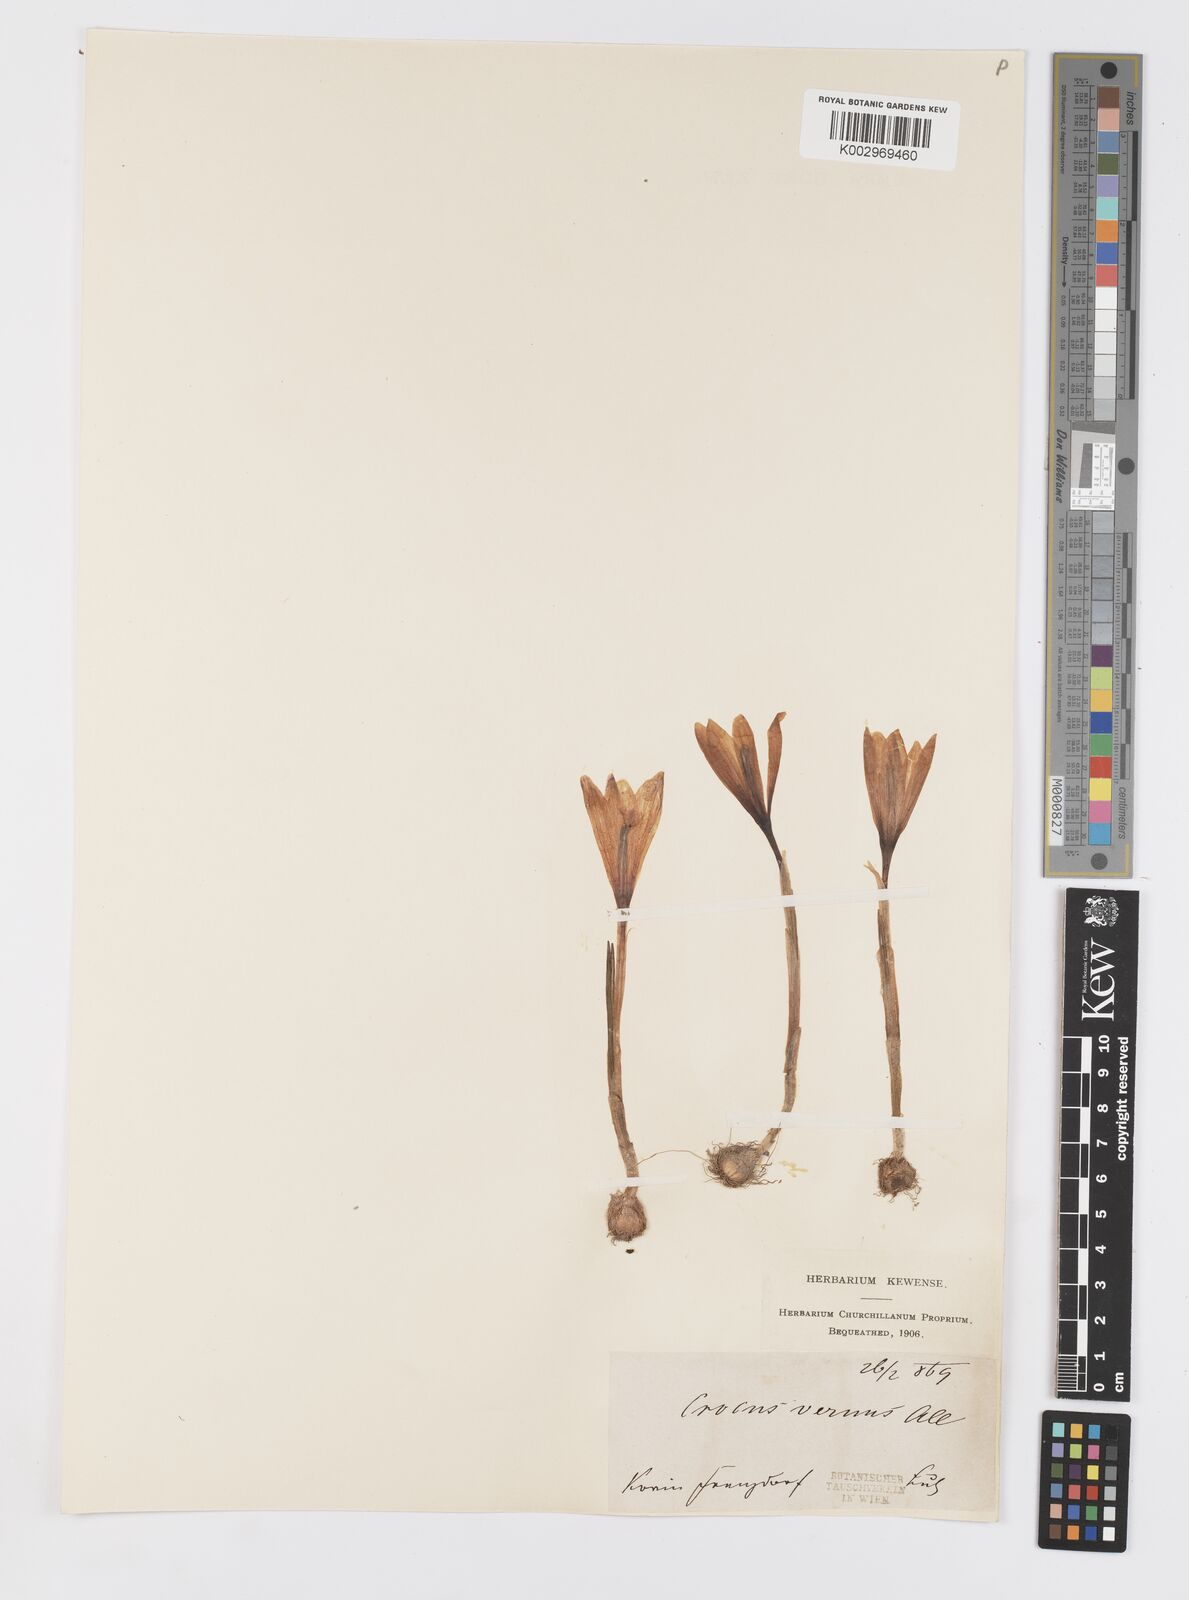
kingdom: Plantae
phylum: Tracheophyta
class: Liliopsida
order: Asparagales
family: Iridaceae
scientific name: Iridaceae
